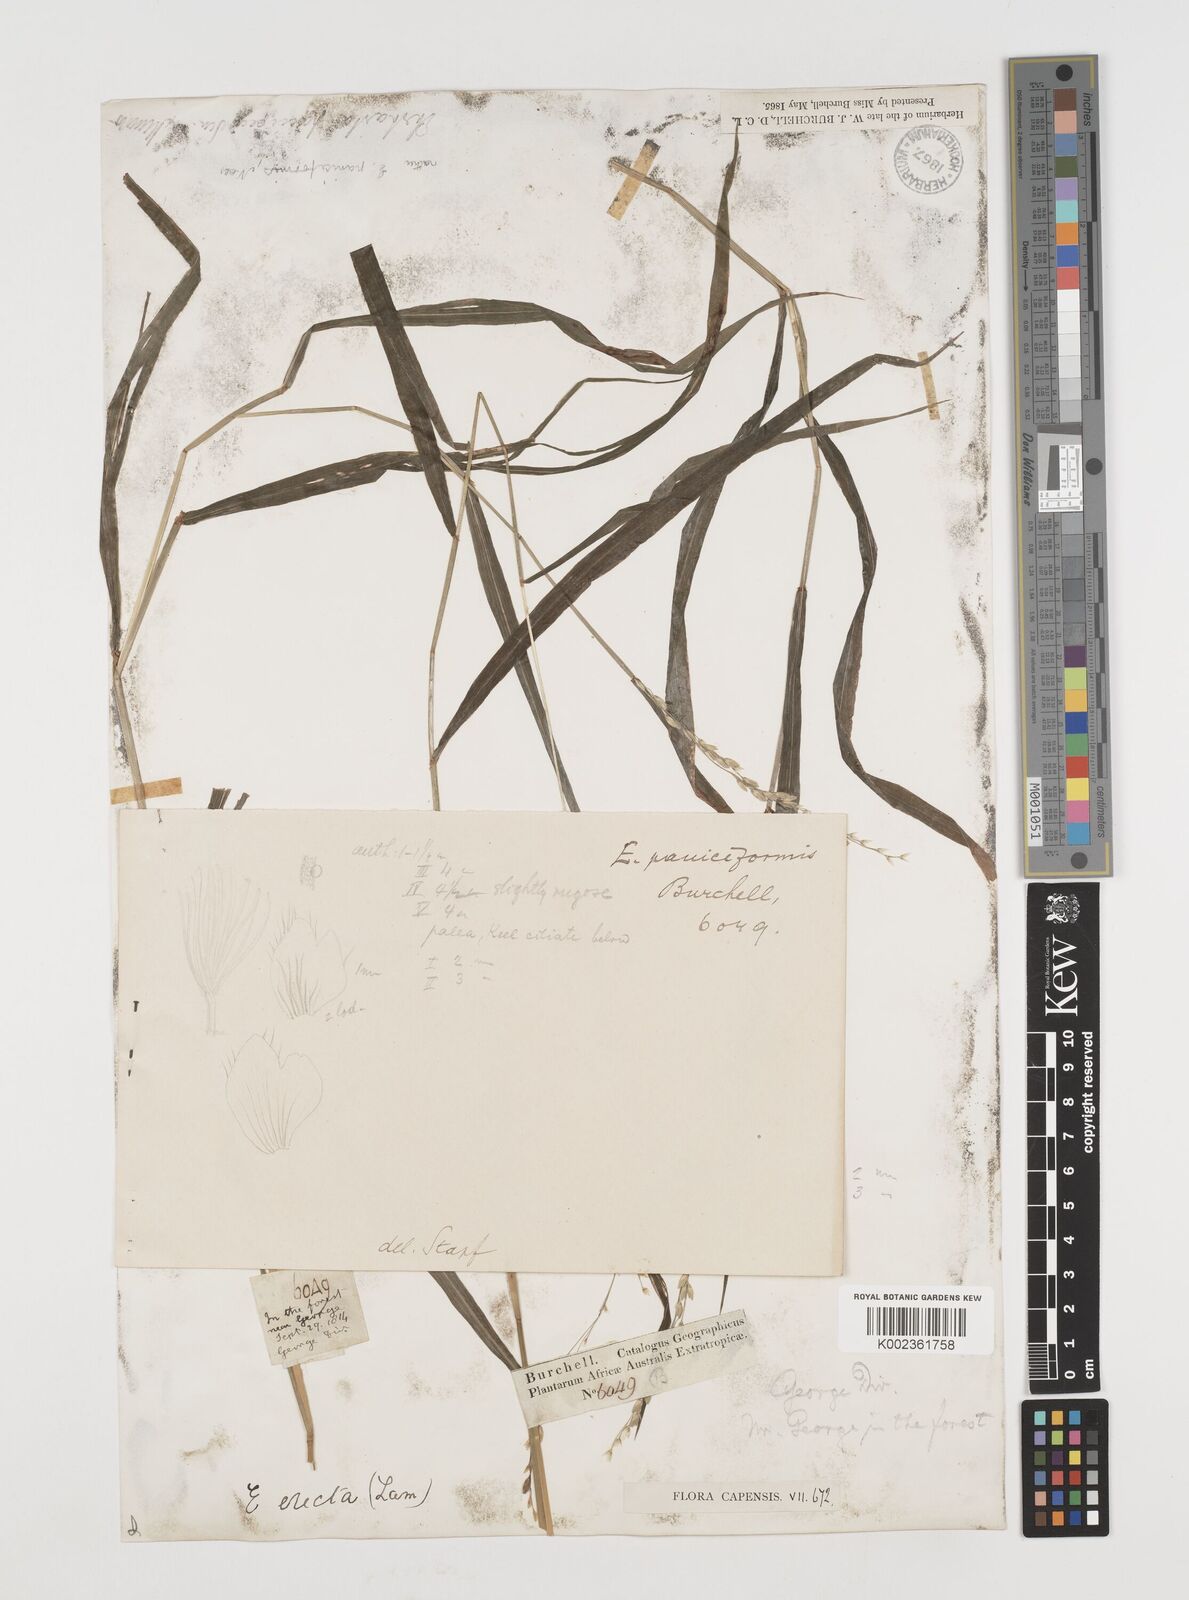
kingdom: Plantae
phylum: Tracheophyta
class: Liliopsida
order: Poales
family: Poaceae
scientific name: Poaceae
